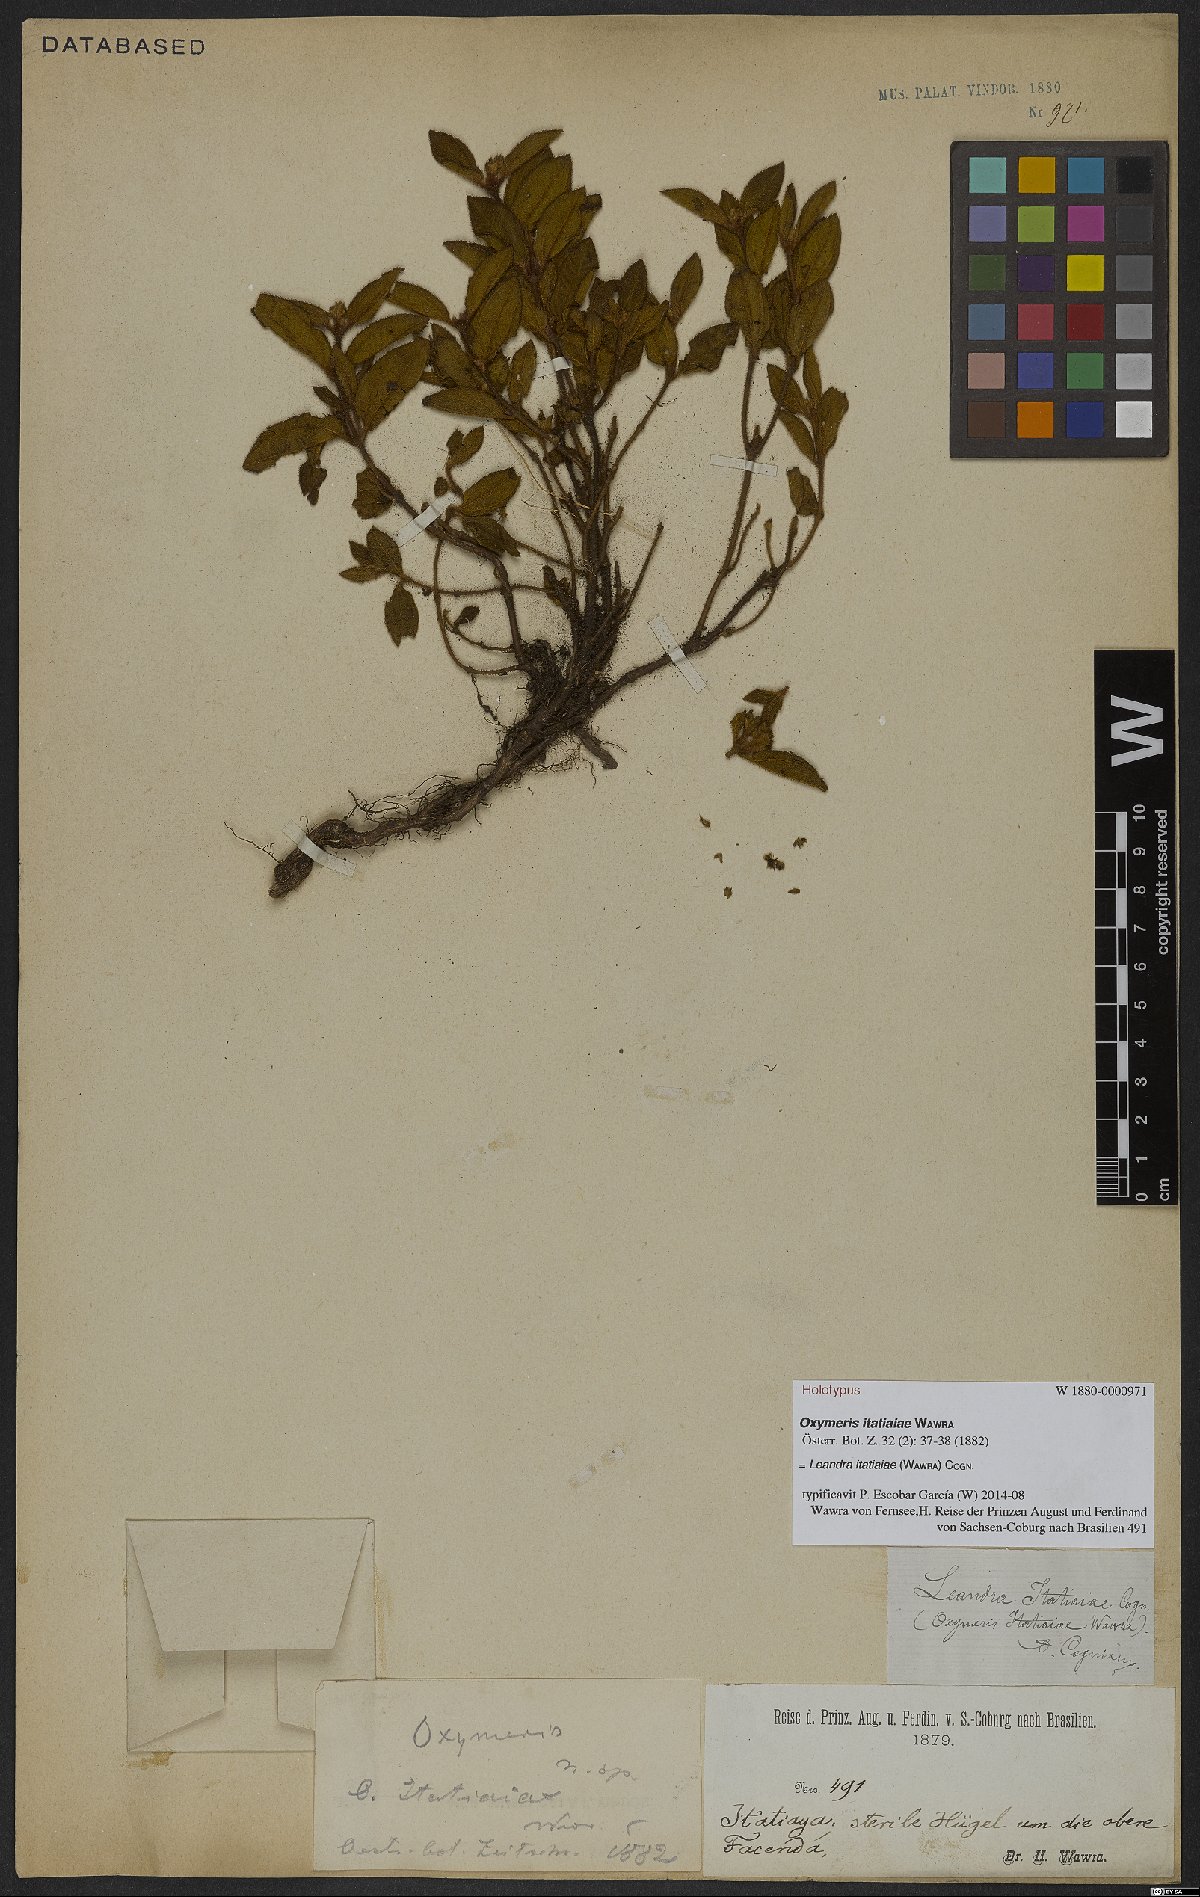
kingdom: Plantae
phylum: Tracheophyta
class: Magnoliopsida
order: Myrtales
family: Melastomataceae
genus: Miconia
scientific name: Miconia itatiaiae
